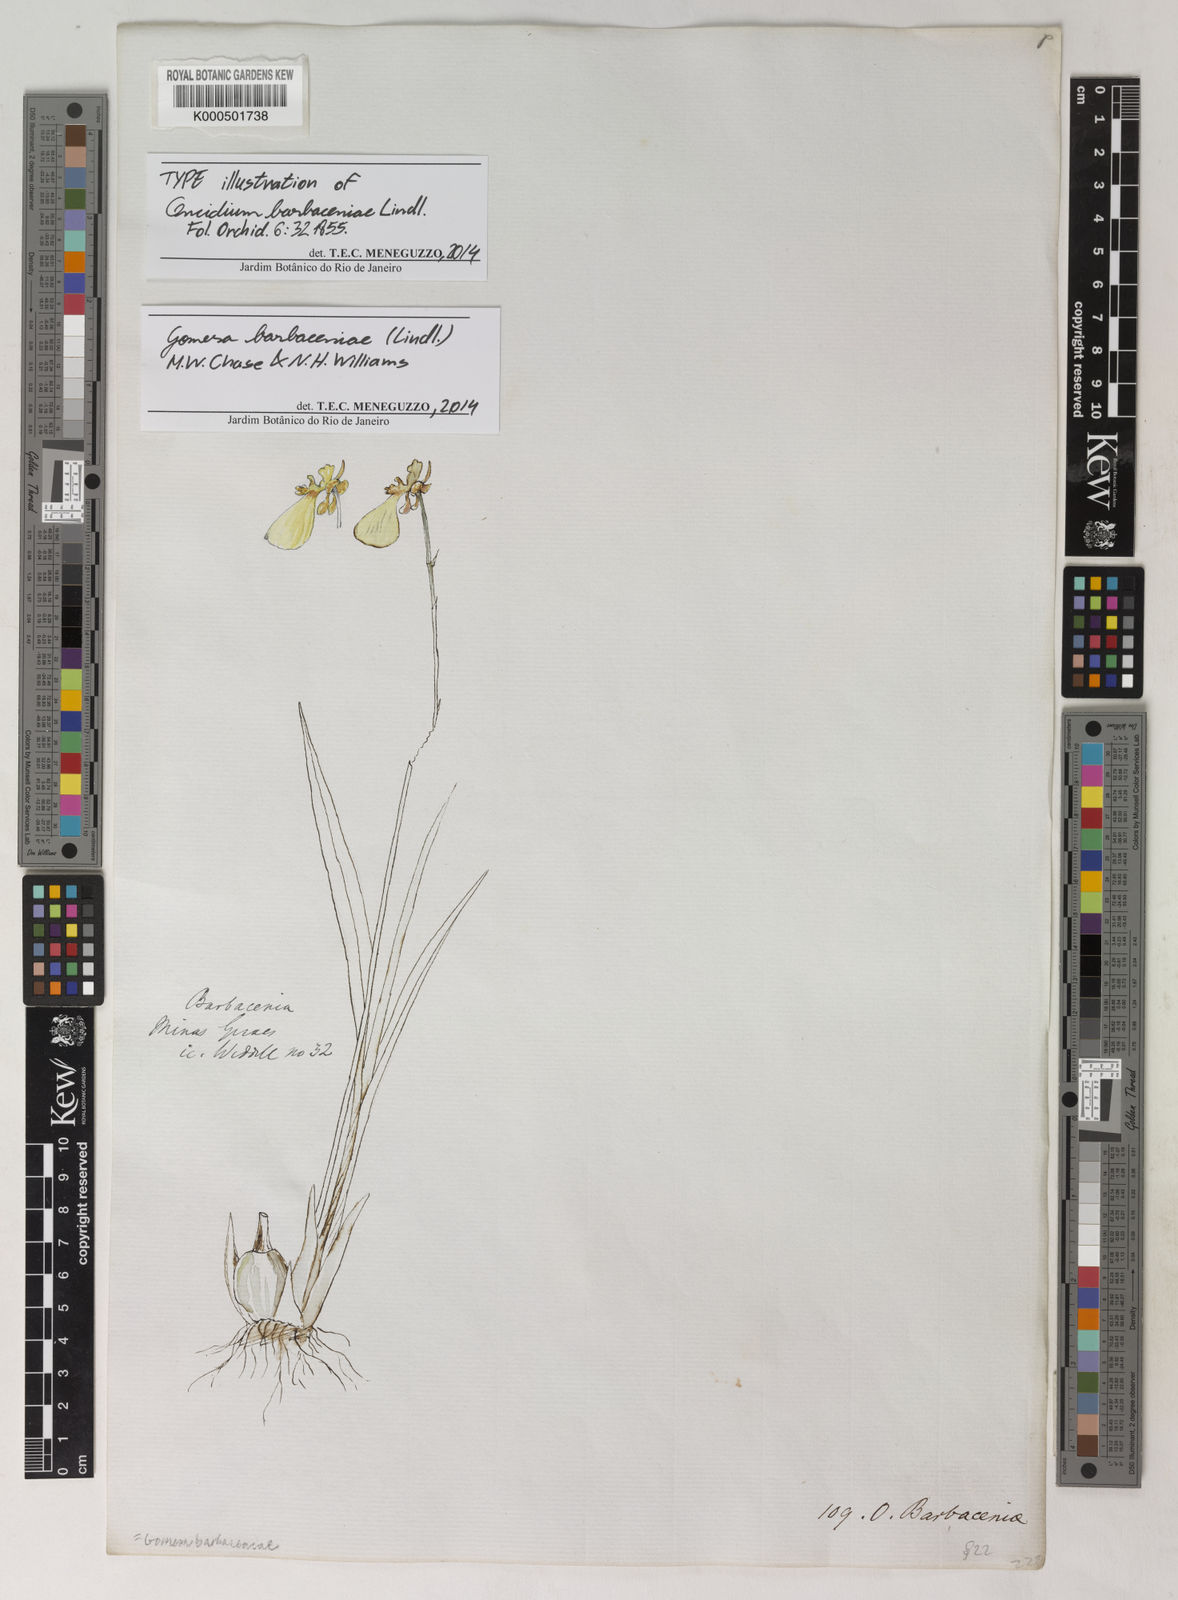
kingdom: Plantae
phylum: Tracheophyta
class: Liliopsida
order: Asparagales
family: Orchidaceae
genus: Gomesa
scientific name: Gomesa barbaceniae
